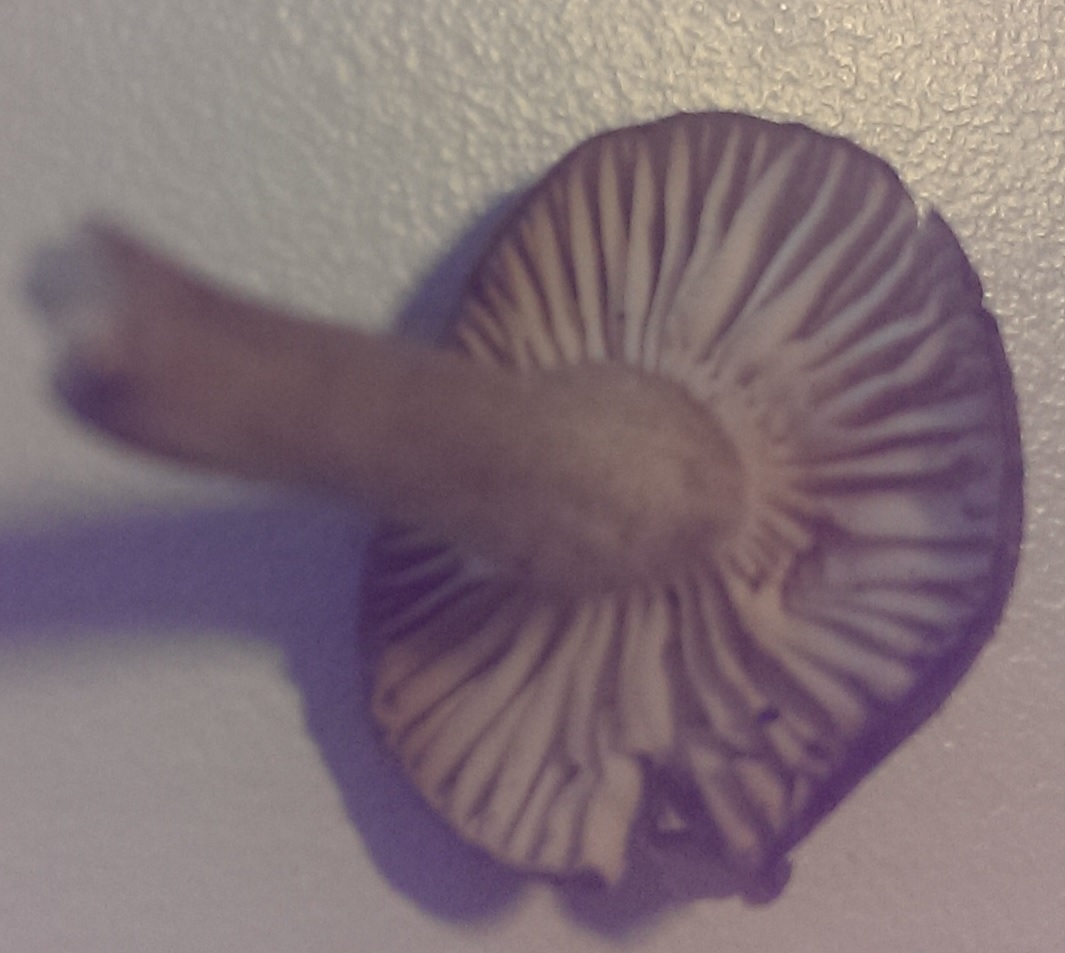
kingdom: Fungi
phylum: Basidiomycota
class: Agaricomycetes
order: Agaricales
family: Hygrophoraceae
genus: Hygrophorus
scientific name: Hygrophorus pustulatus
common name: mørkprikket sneglehat
